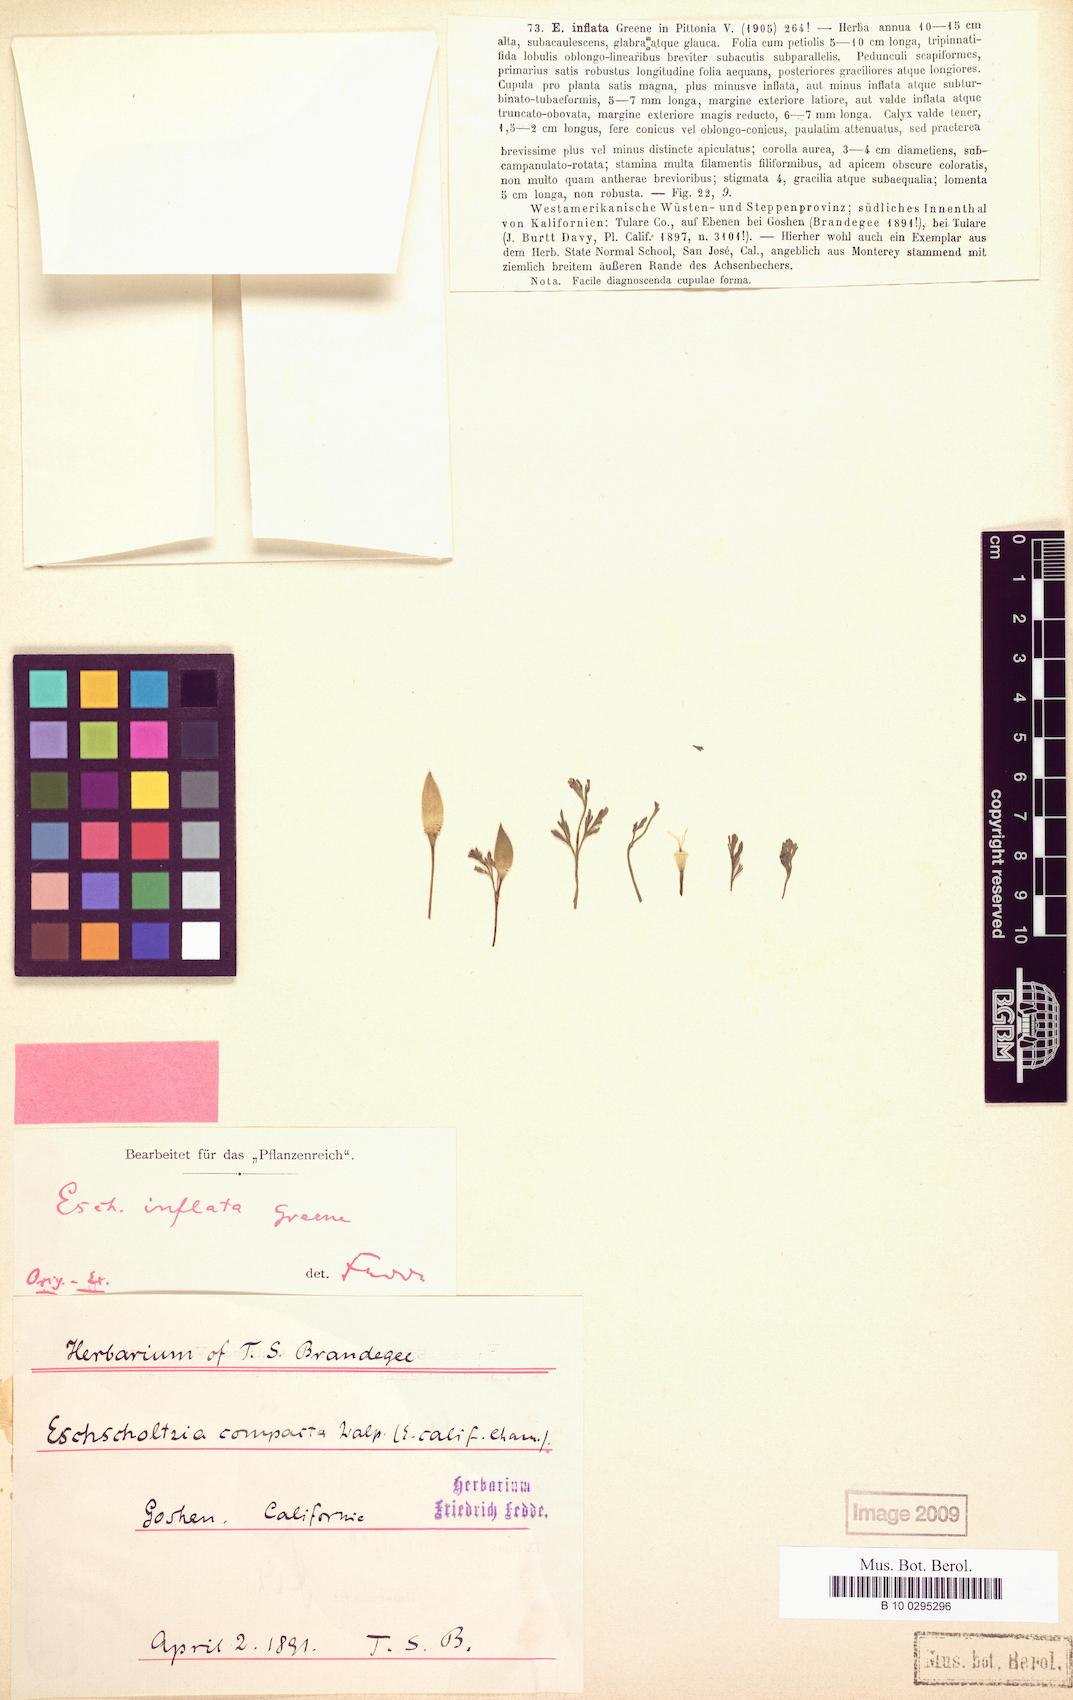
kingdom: Plantae
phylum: Tracheophyta
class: Magnoliopsida
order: Ranunculales
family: Papaveraceae
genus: Eschscholzia
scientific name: Eschscholzia californica
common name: California poppy
